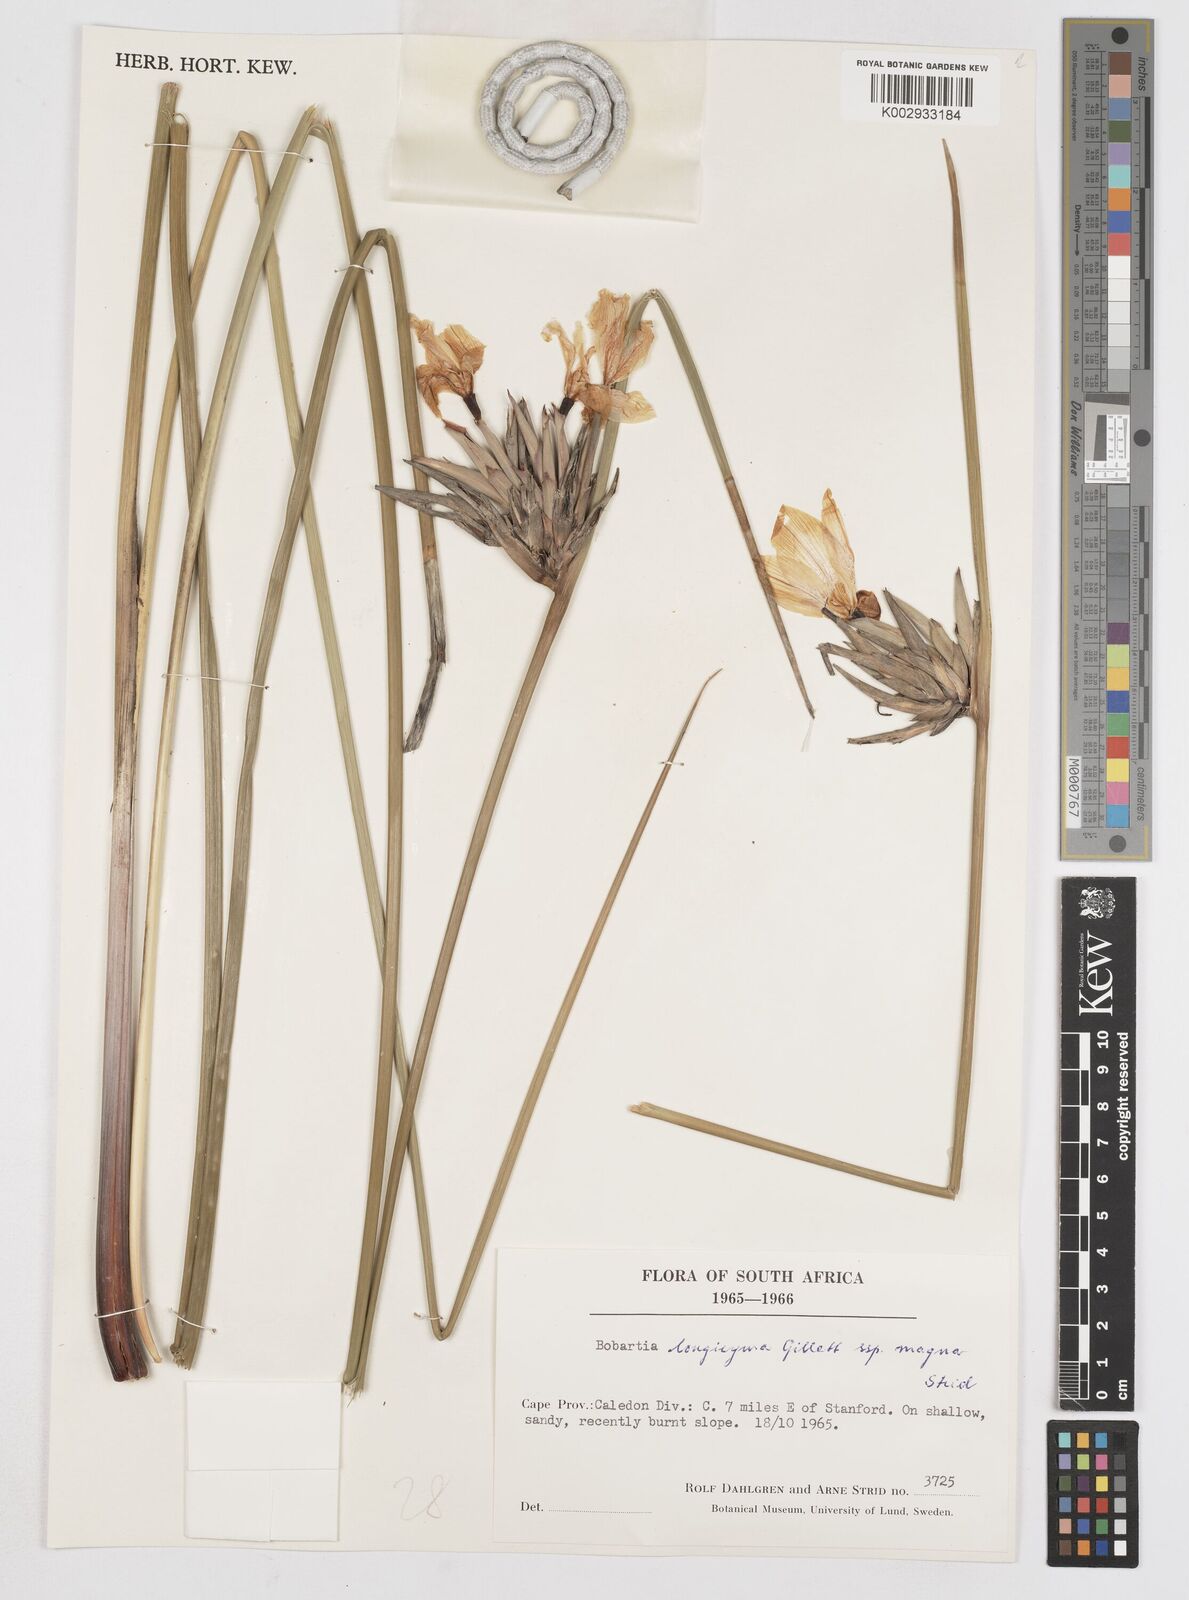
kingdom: Plantae
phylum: Tracheophyta
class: Liliopsida
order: Asparagales
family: Iridaceae
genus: Bobartia
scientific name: Bobartia longicyma
